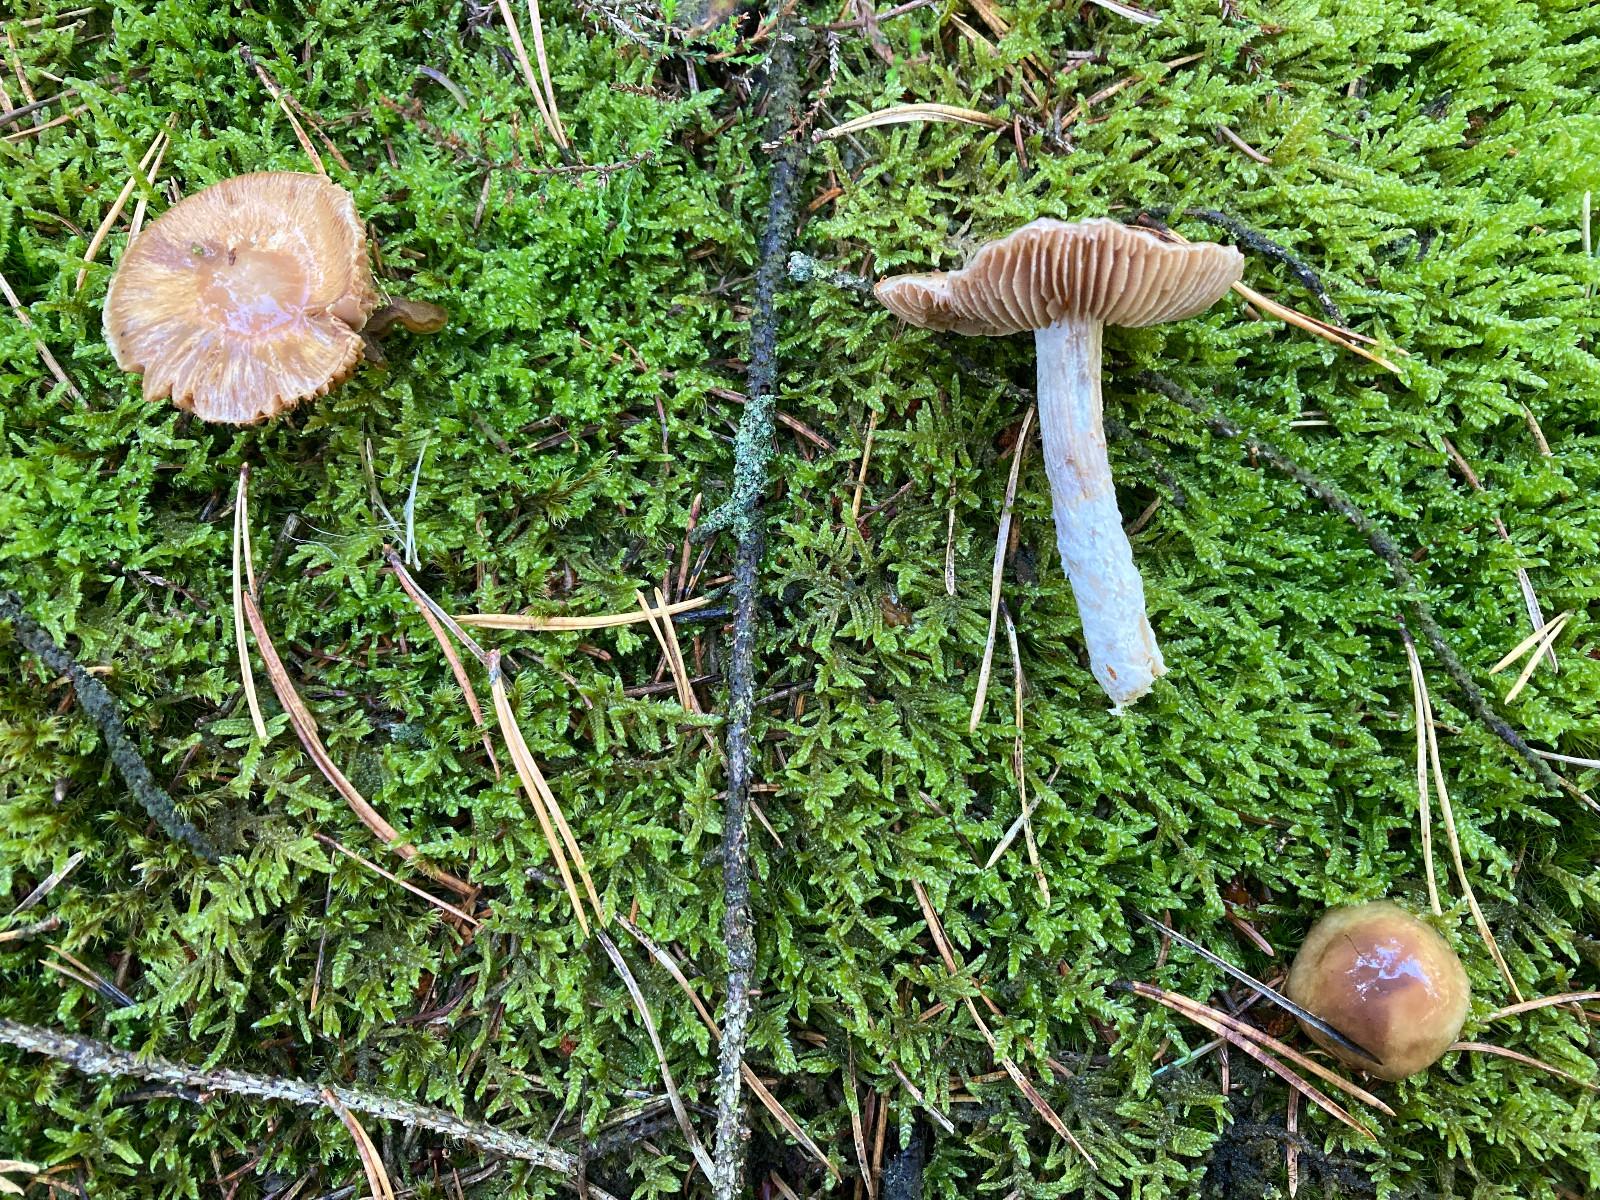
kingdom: Fungi
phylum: Basidiomycota
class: Agaricomycetes
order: Agaricales
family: Cortinariaceae
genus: Cortinarius
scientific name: Cortinarius stillatitius
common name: honningduftende slørhat
